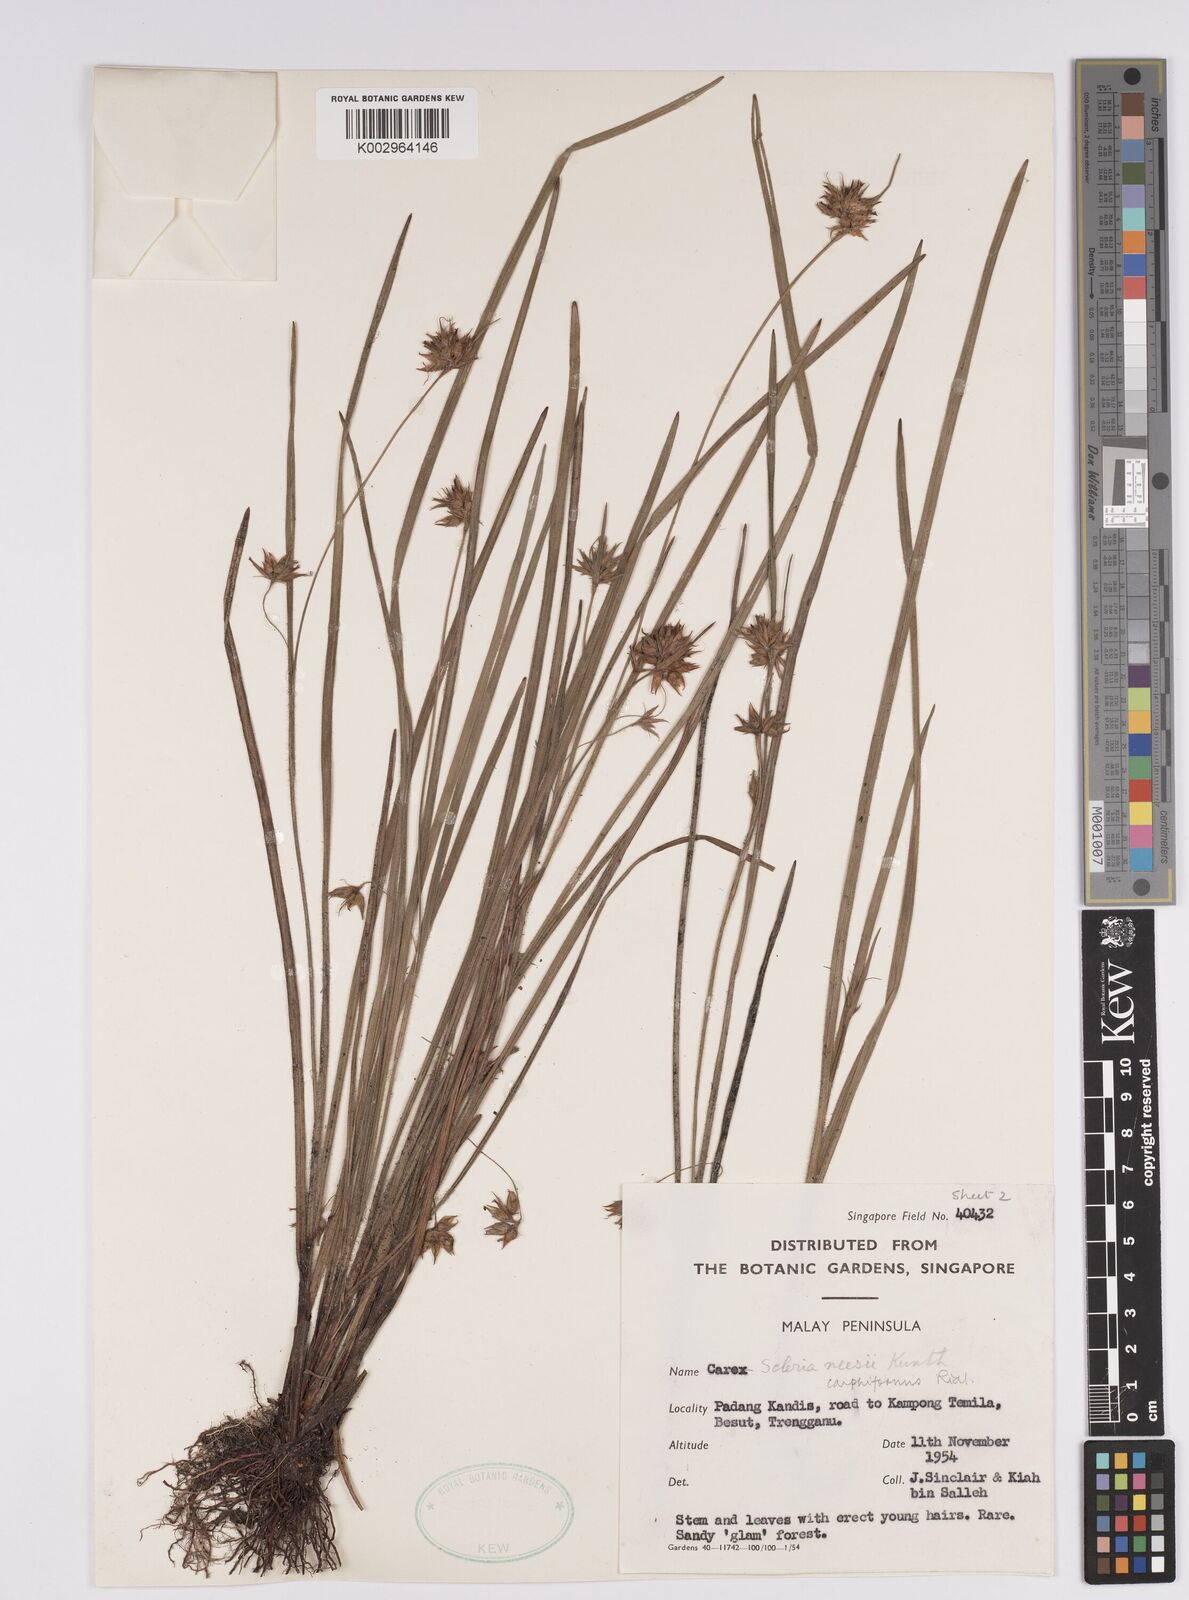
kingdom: Plantae
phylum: Tracheophyta
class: Liliopsida
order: Poales
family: Cyperaceae
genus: Scleria
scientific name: Scleria carphiformis
